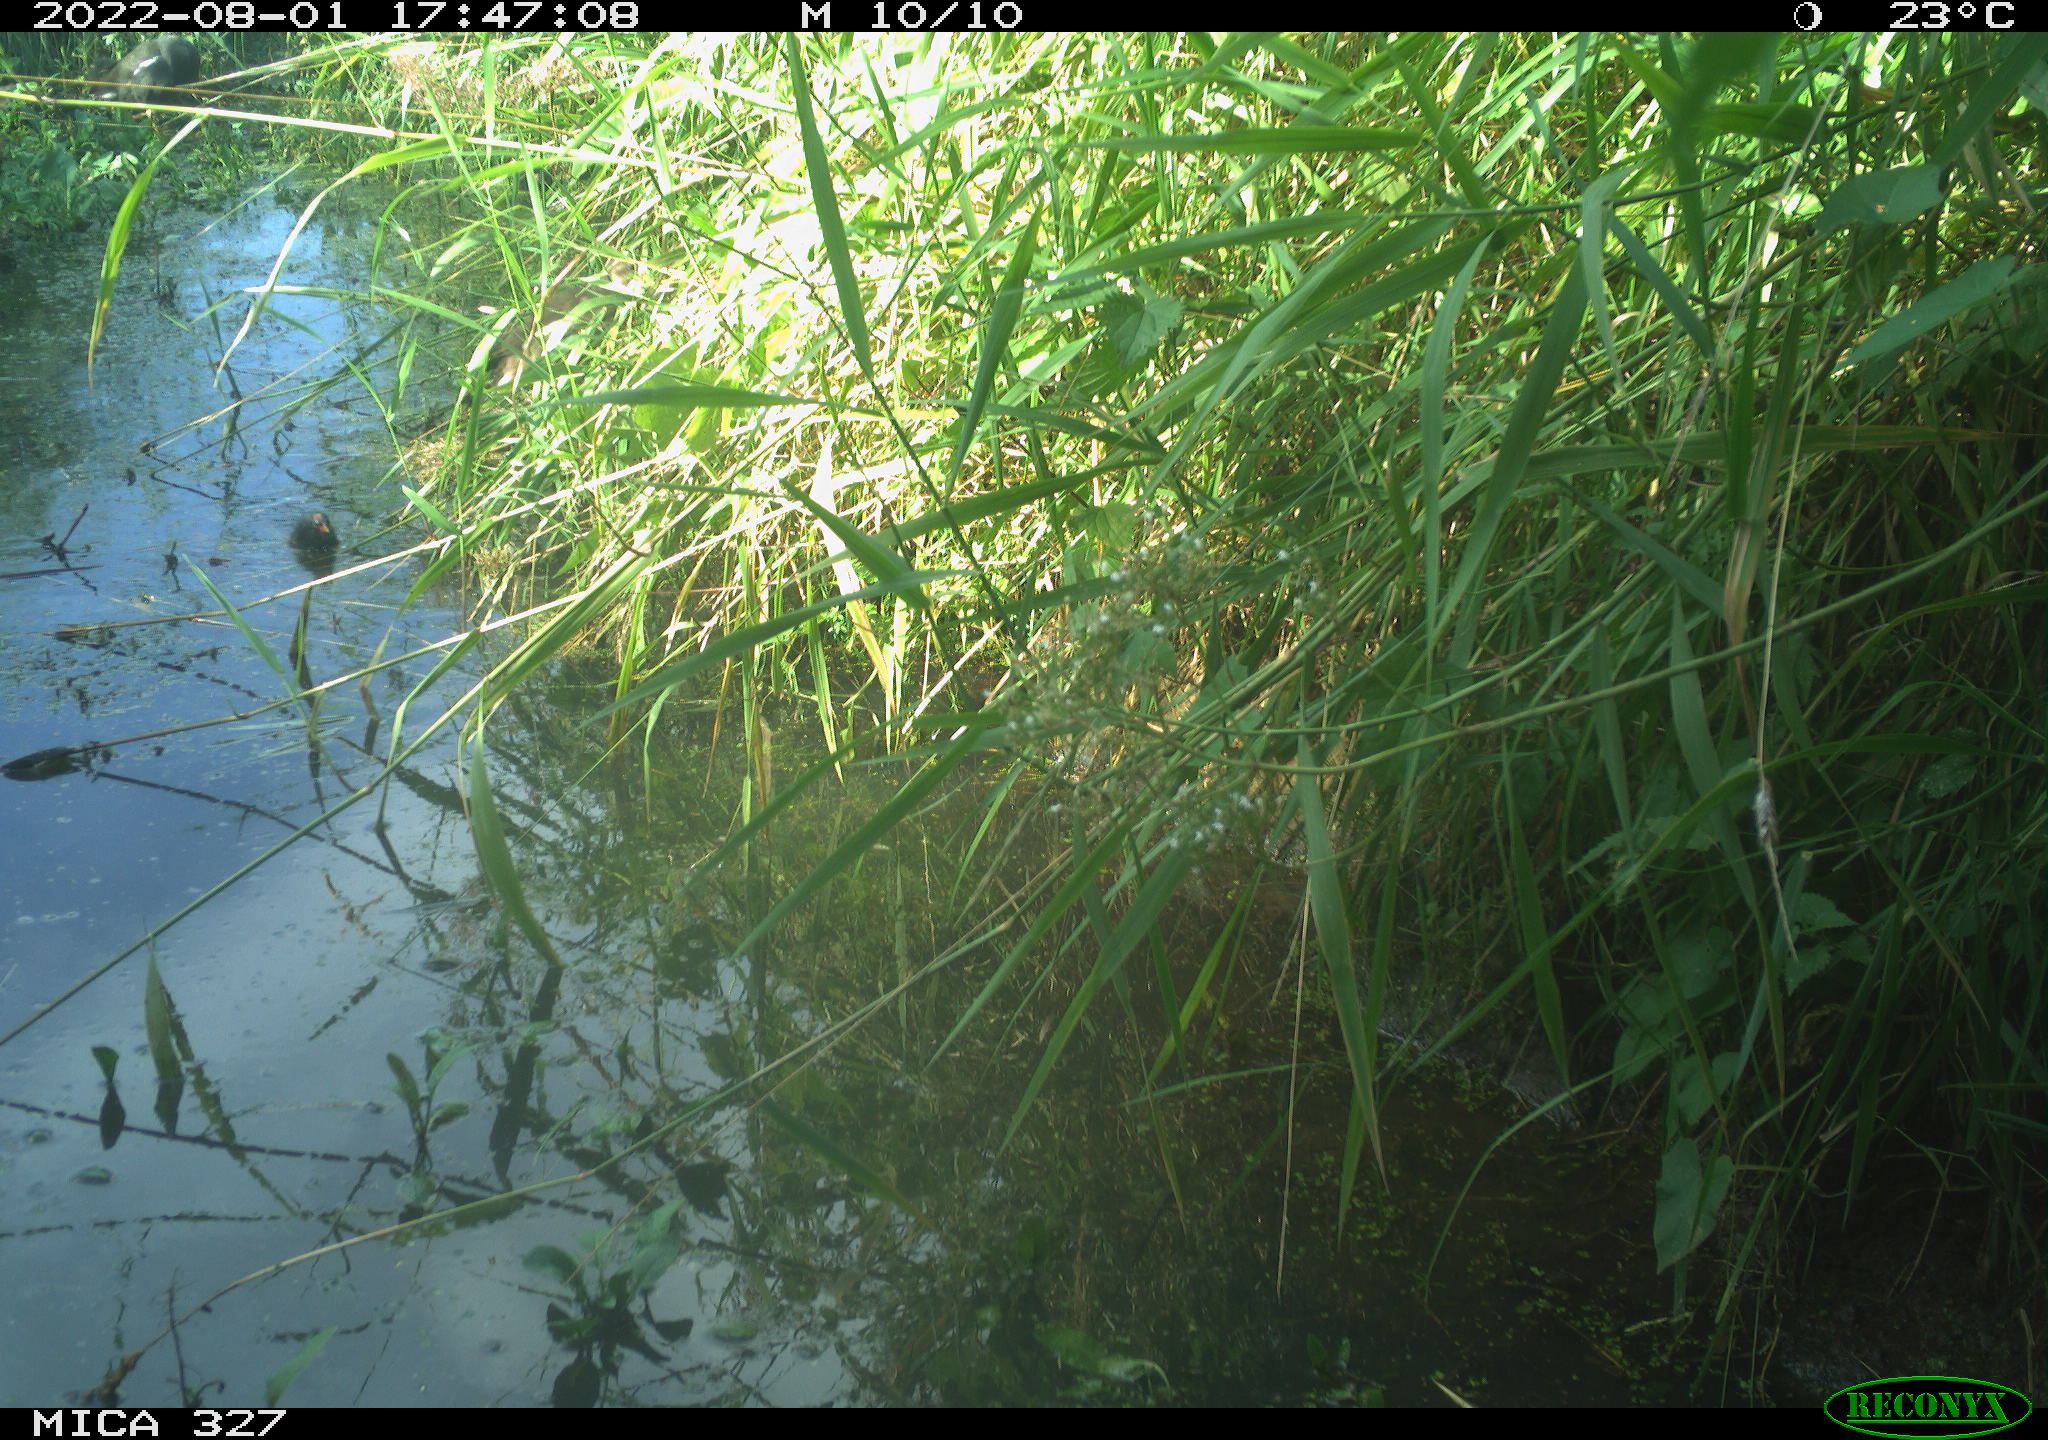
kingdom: Animalia
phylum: Chordata
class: Aves
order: Gruiformes
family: Rallidae
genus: Gallinula
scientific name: Gallinula chloropus
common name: Common moorhen
